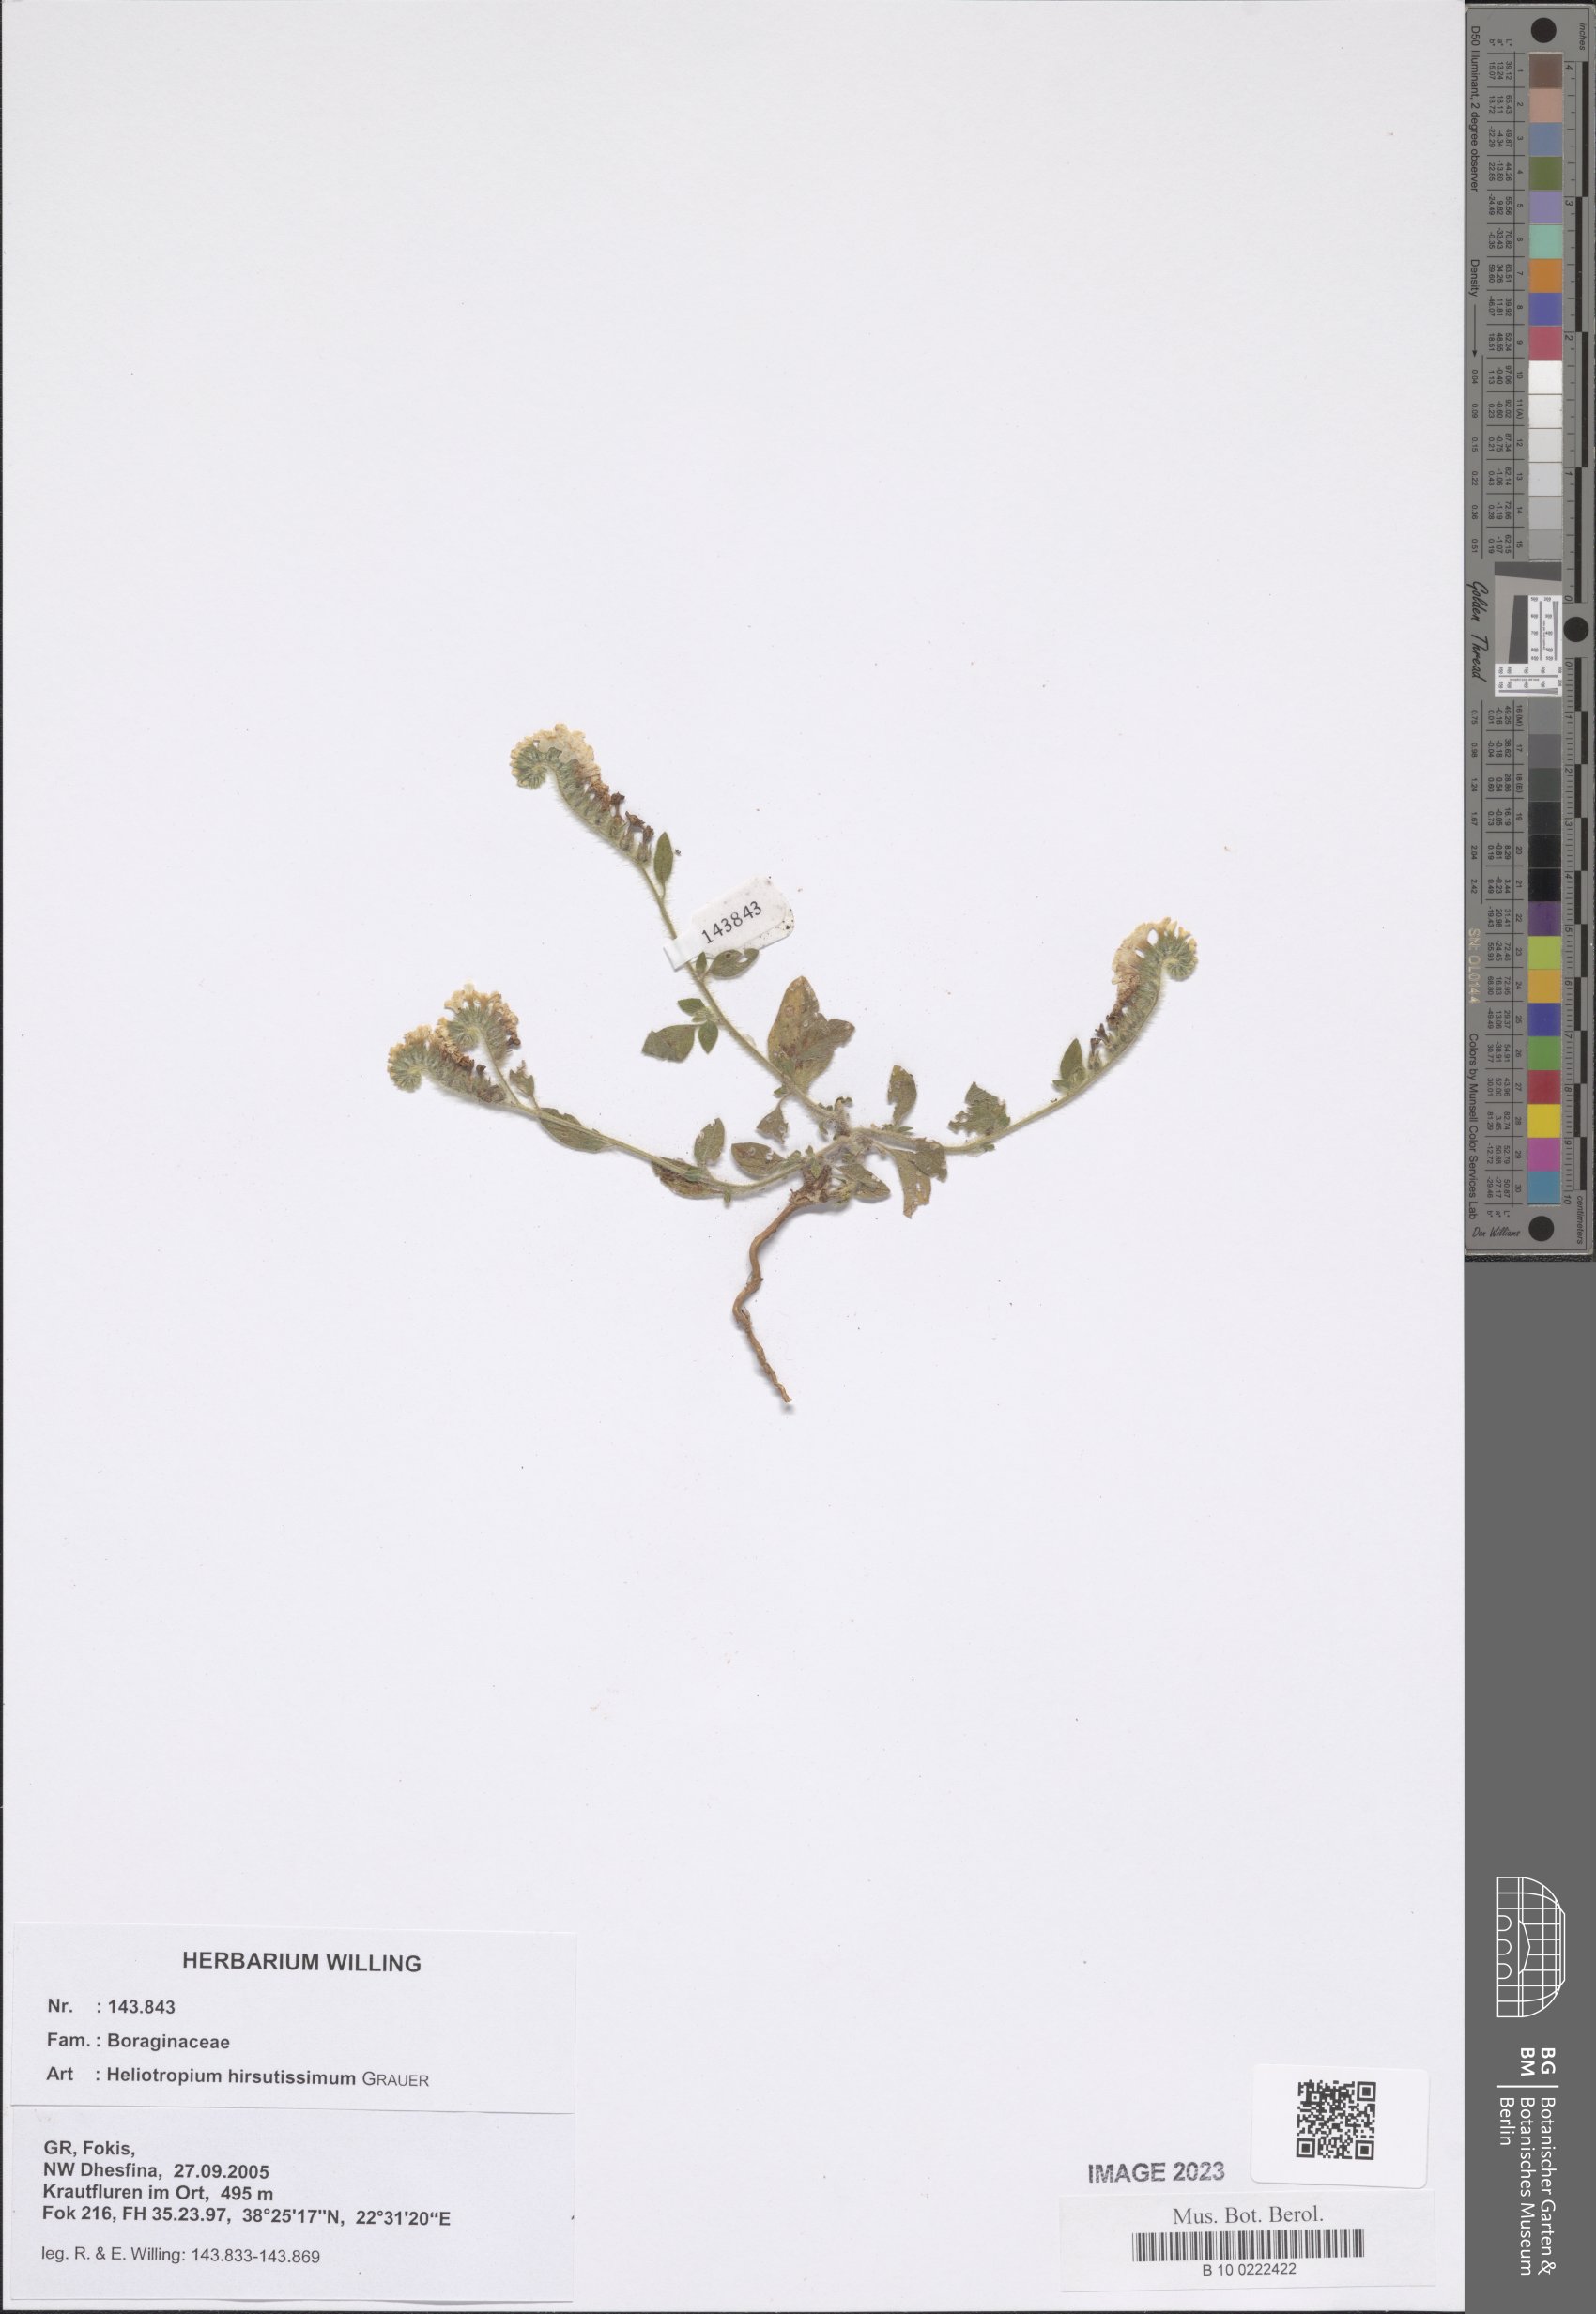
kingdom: Plantae
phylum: Tracheophyta
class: Magnoliopsida
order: Boraginales
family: Heliotropiaceae
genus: Heliotropium
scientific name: Heliotropium hirsutissimum
